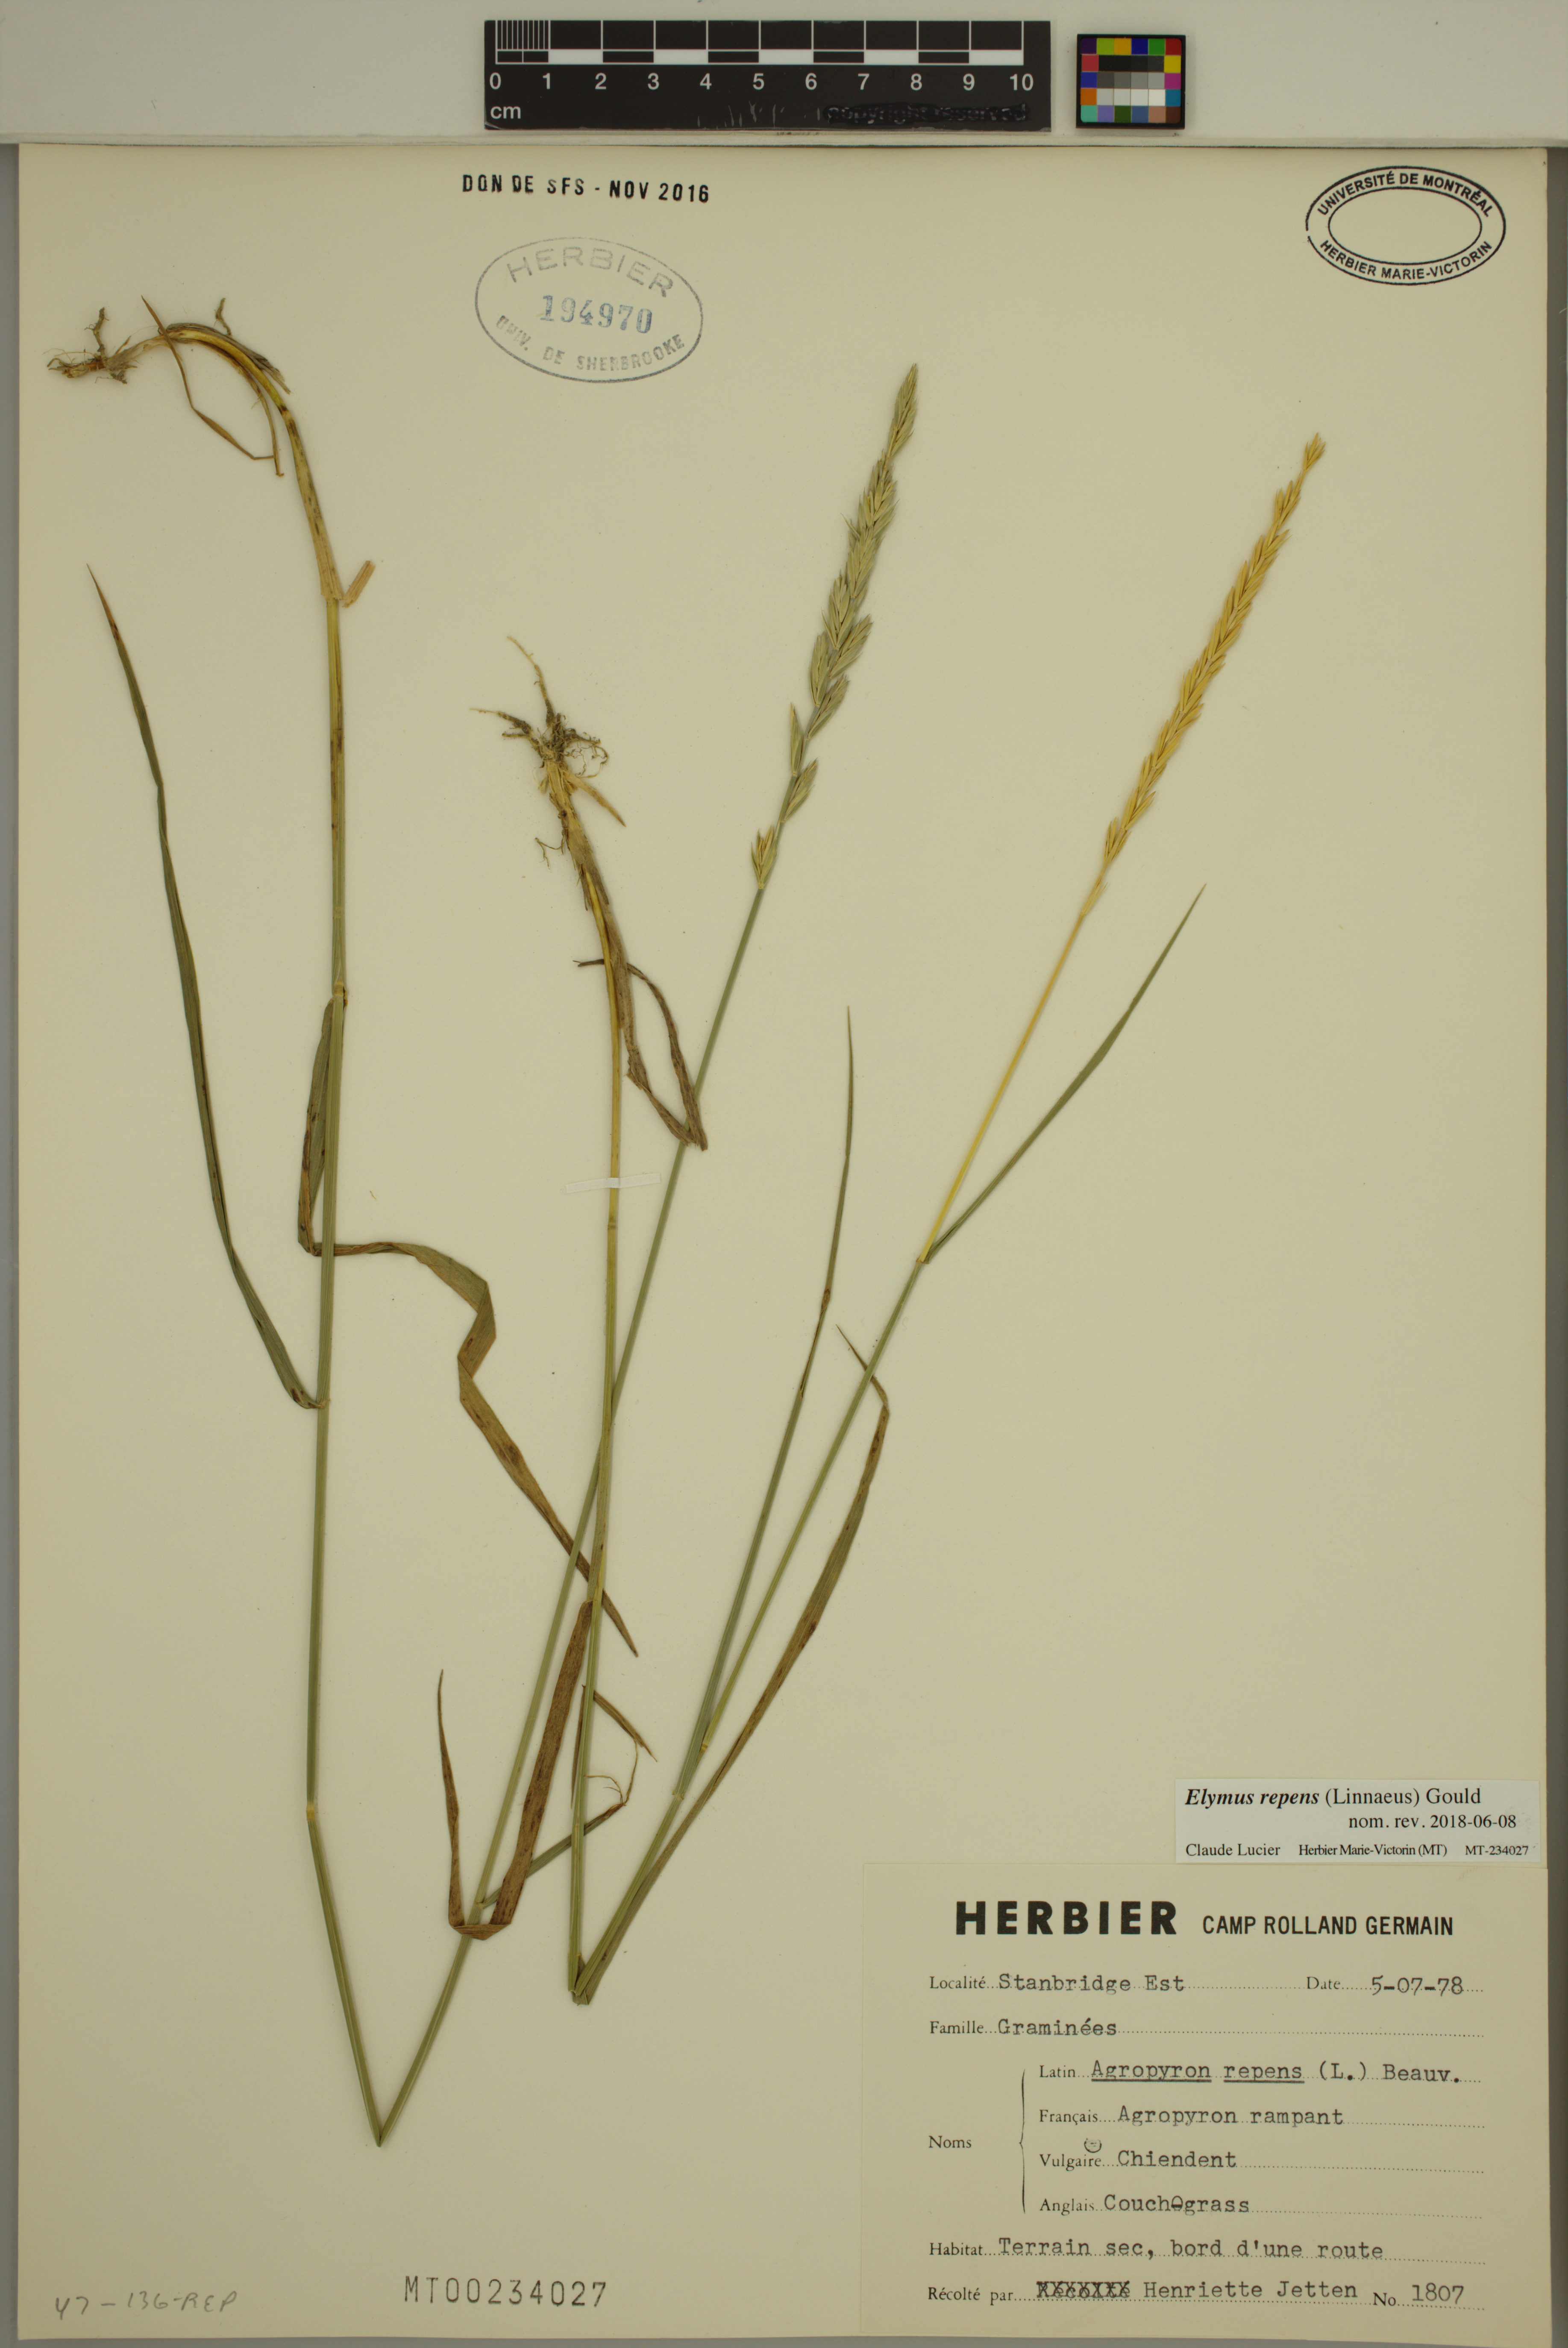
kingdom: Plantae
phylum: Tracheophyta
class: Liliopsida
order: Poales
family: Poaceae
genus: Elymus
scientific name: Elymus repens
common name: Quackgrass
